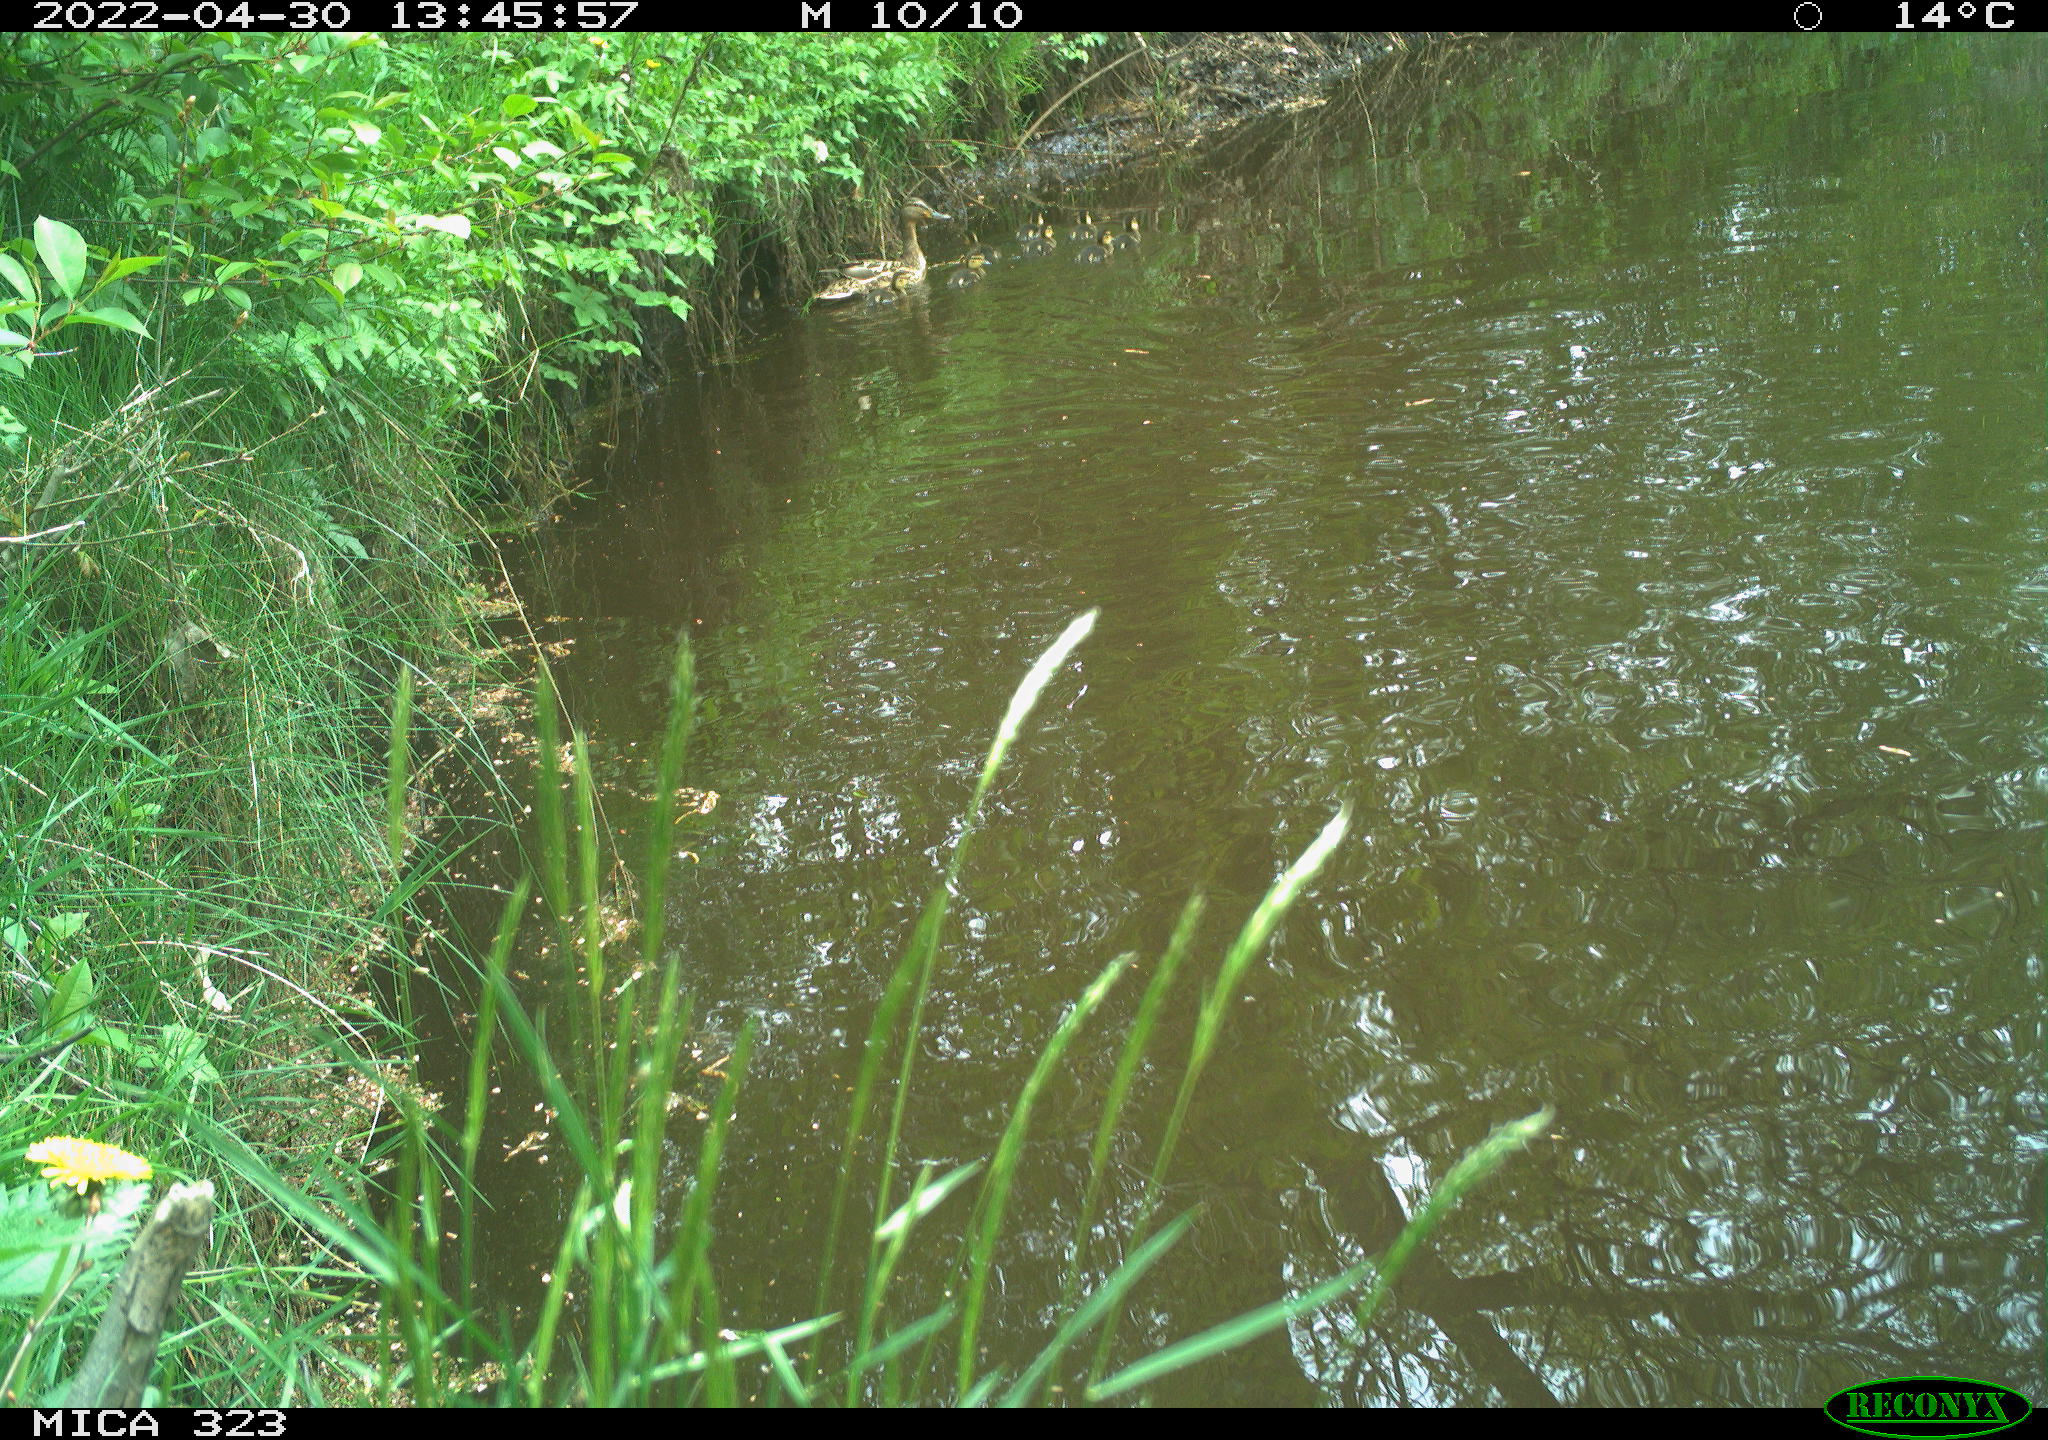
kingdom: Animalia
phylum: Chordata
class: Aves
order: Anseriformes
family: Anatidae
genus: Anas
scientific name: Anas platyrhynchos
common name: Mallard
